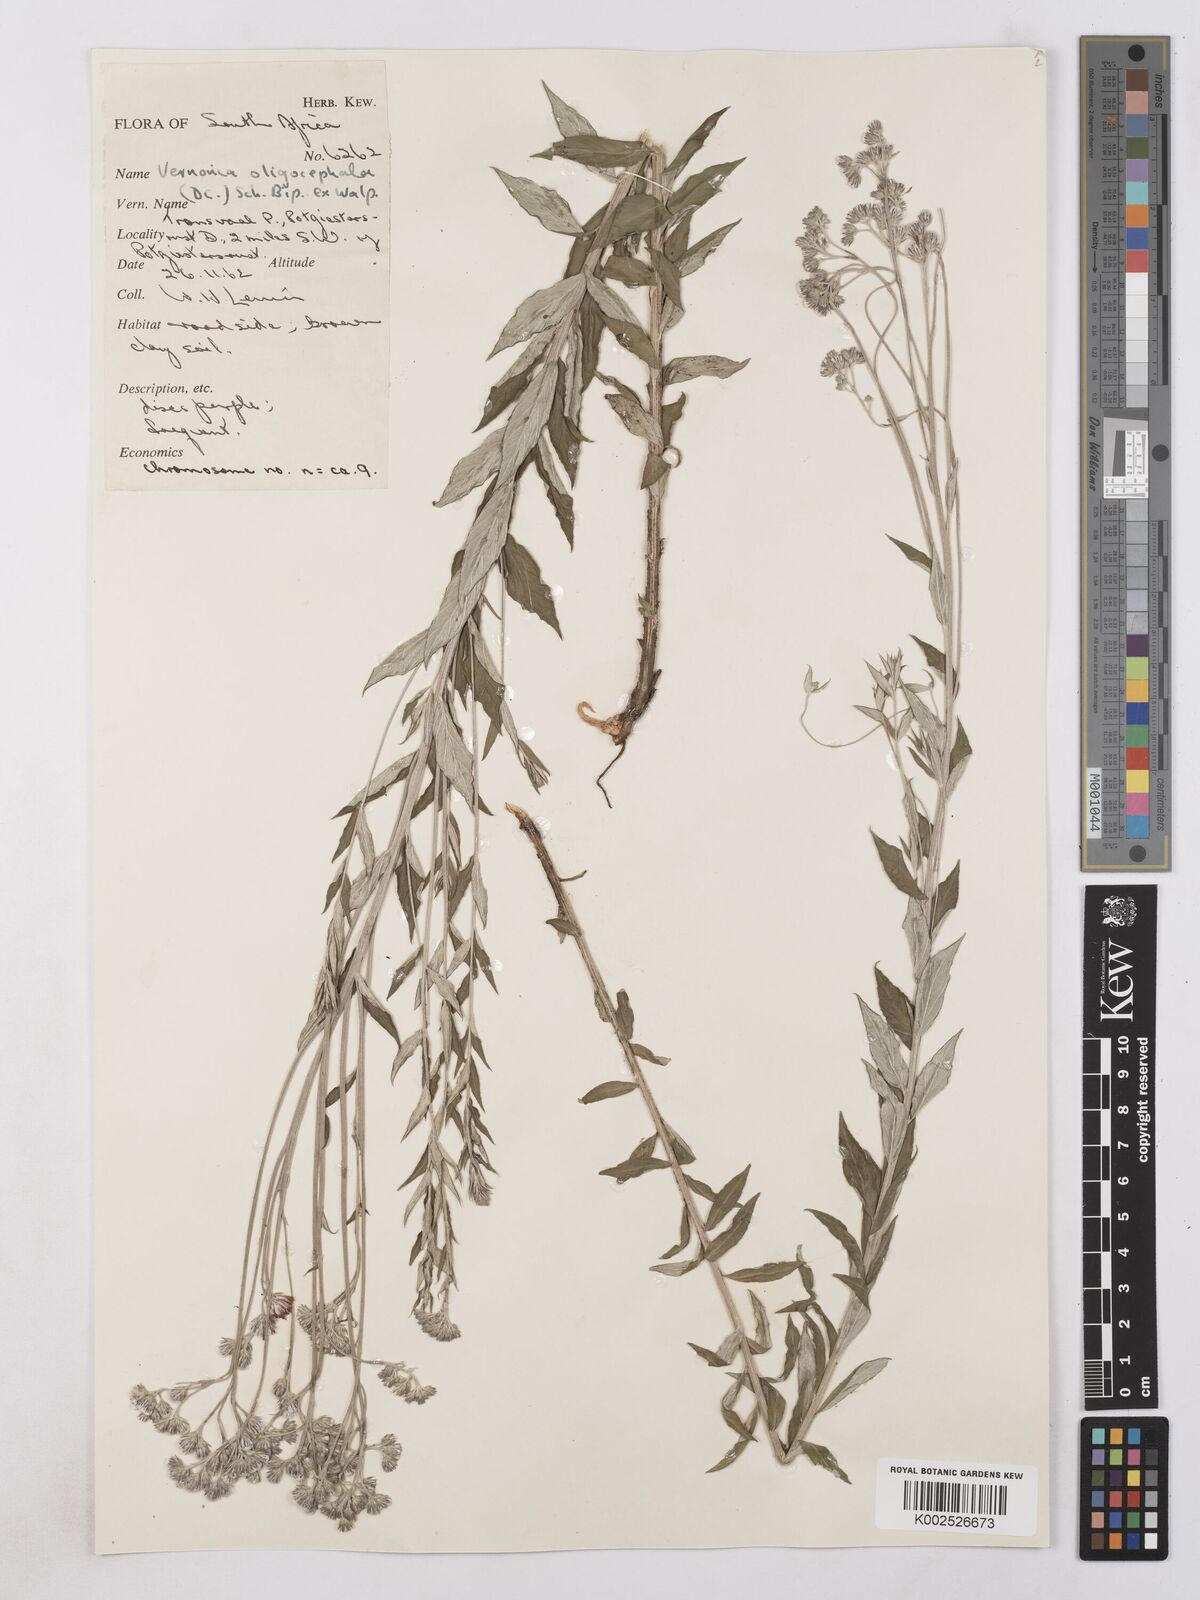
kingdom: Plantae
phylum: Tracheophyta
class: Magnoliopsida
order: Asterales
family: Asteraceae
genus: Hilliardiella
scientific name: Hilliardiella oligocephala
